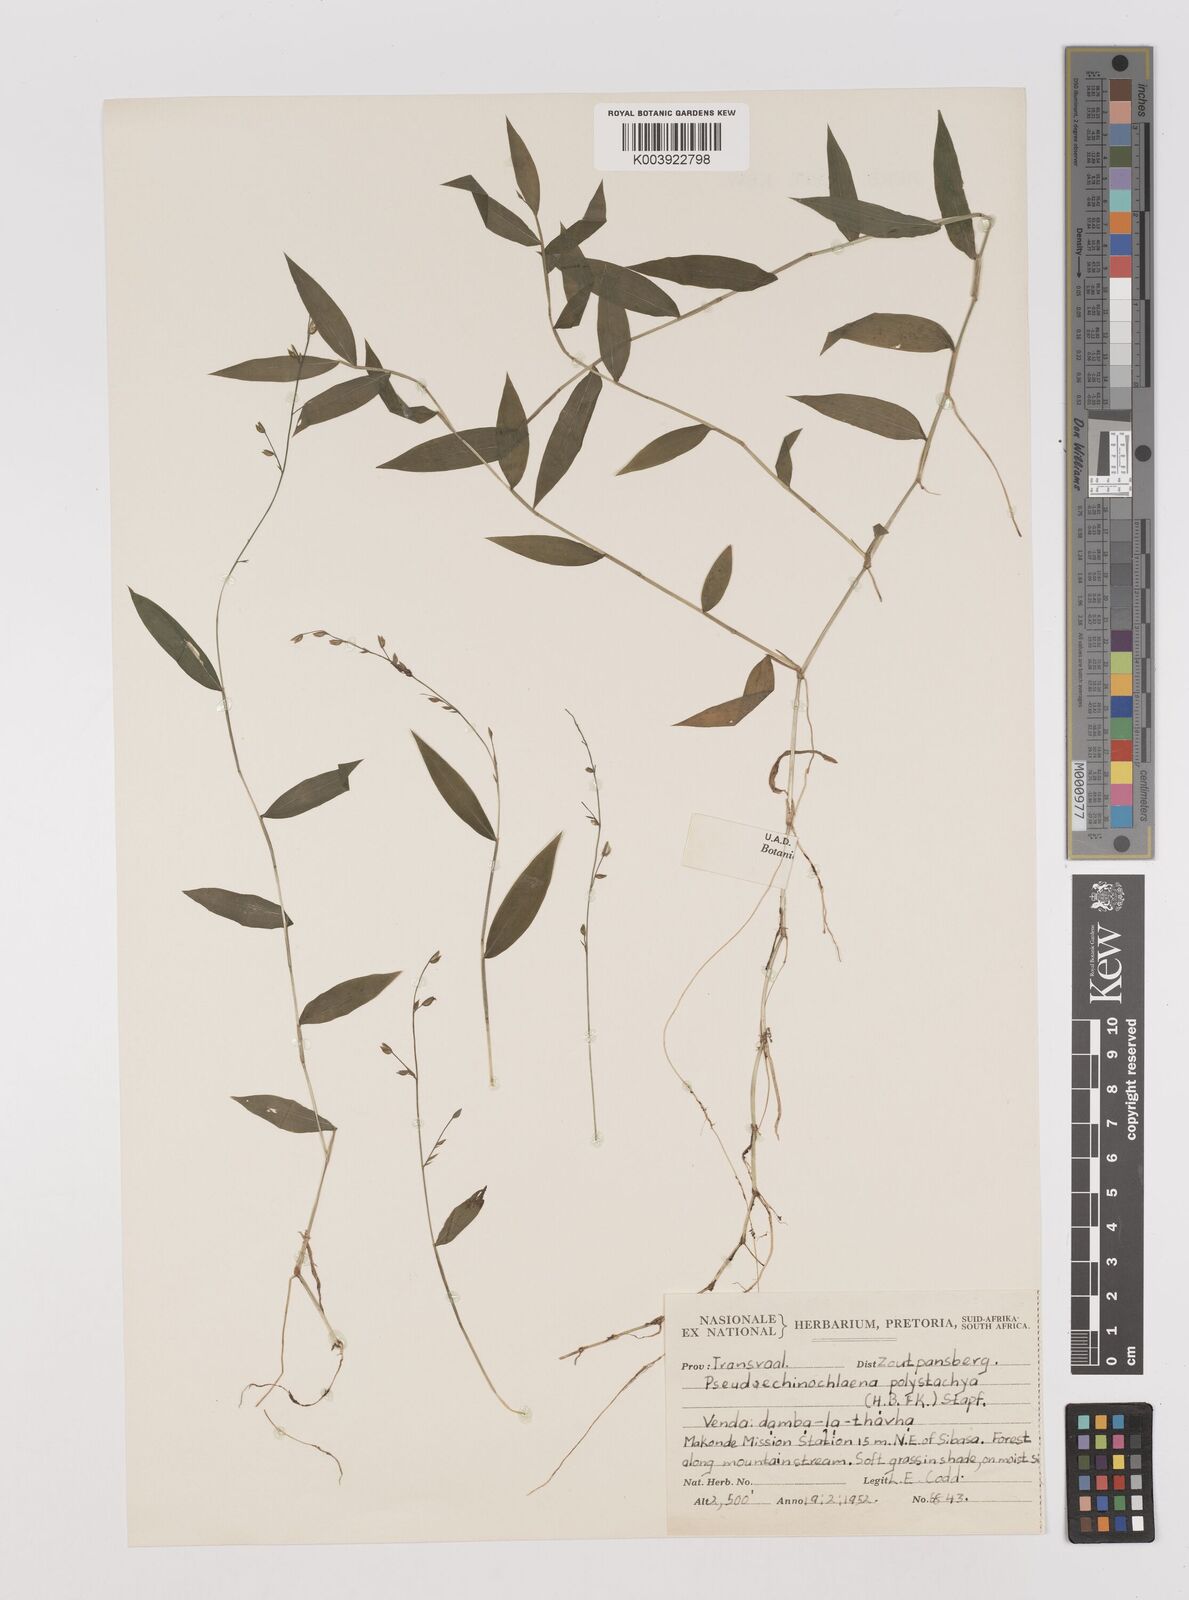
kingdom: Plantae
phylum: Tracheophyta
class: Liliopsida
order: Poales
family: Poaceae
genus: Pseudechinolaena
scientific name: Pseudechinolaena polystachya
